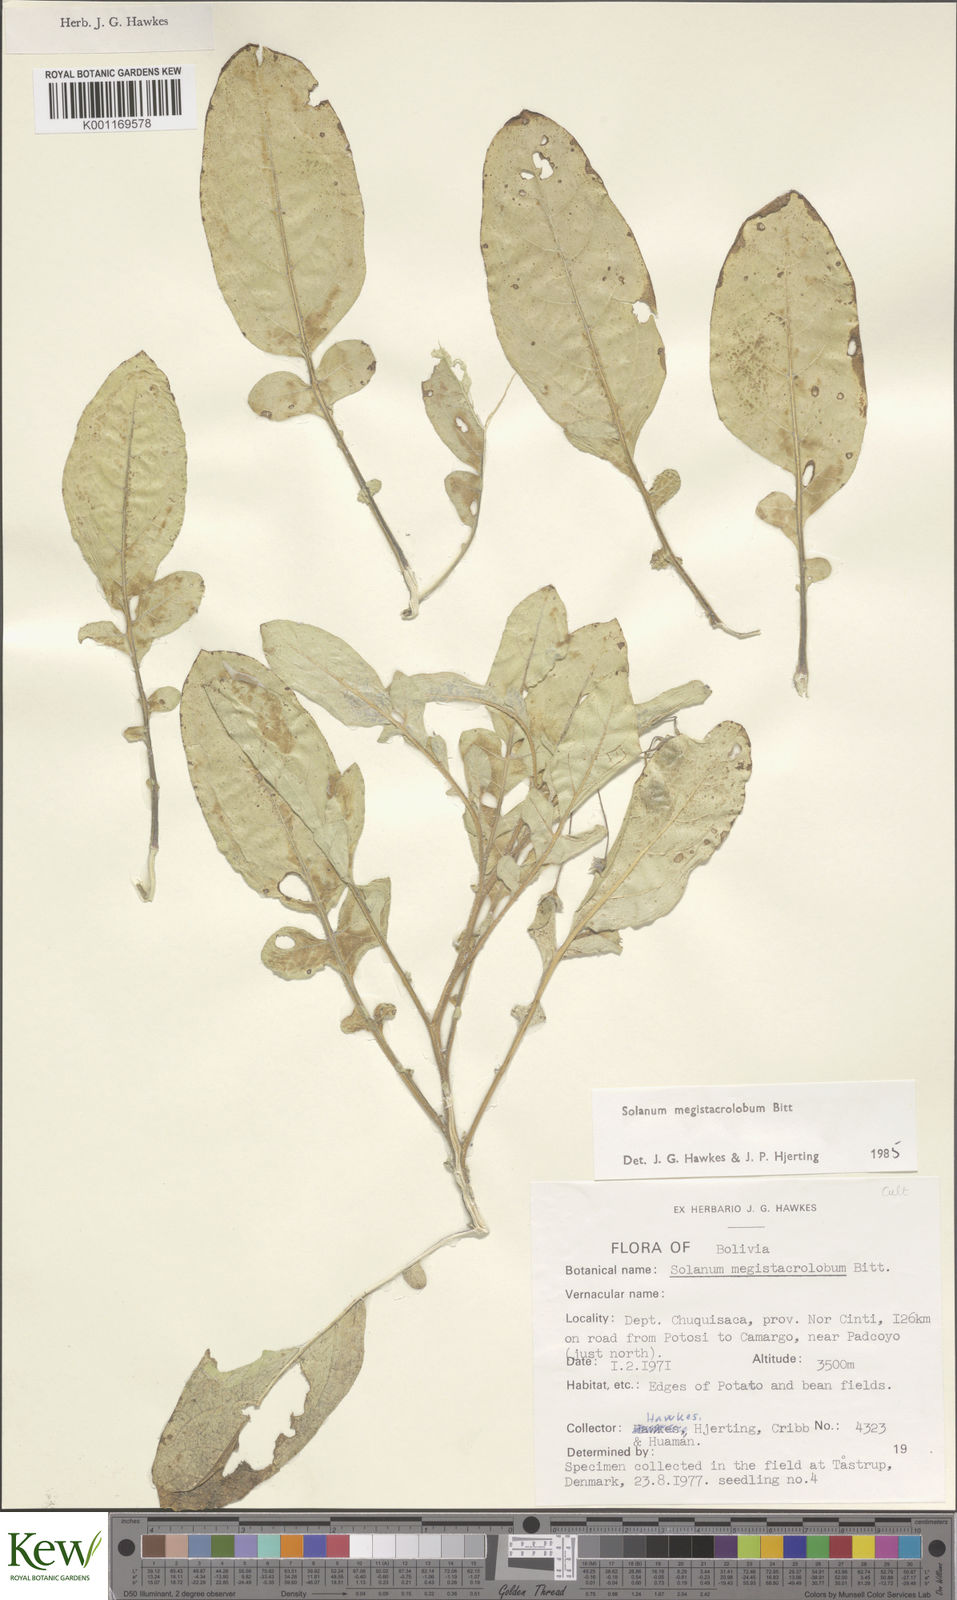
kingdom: Plantae
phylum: Tracheophyta
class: Magnoliopsida
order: Solanales
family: Solanaceae
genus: Solanum
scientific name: Solanum boliviense
